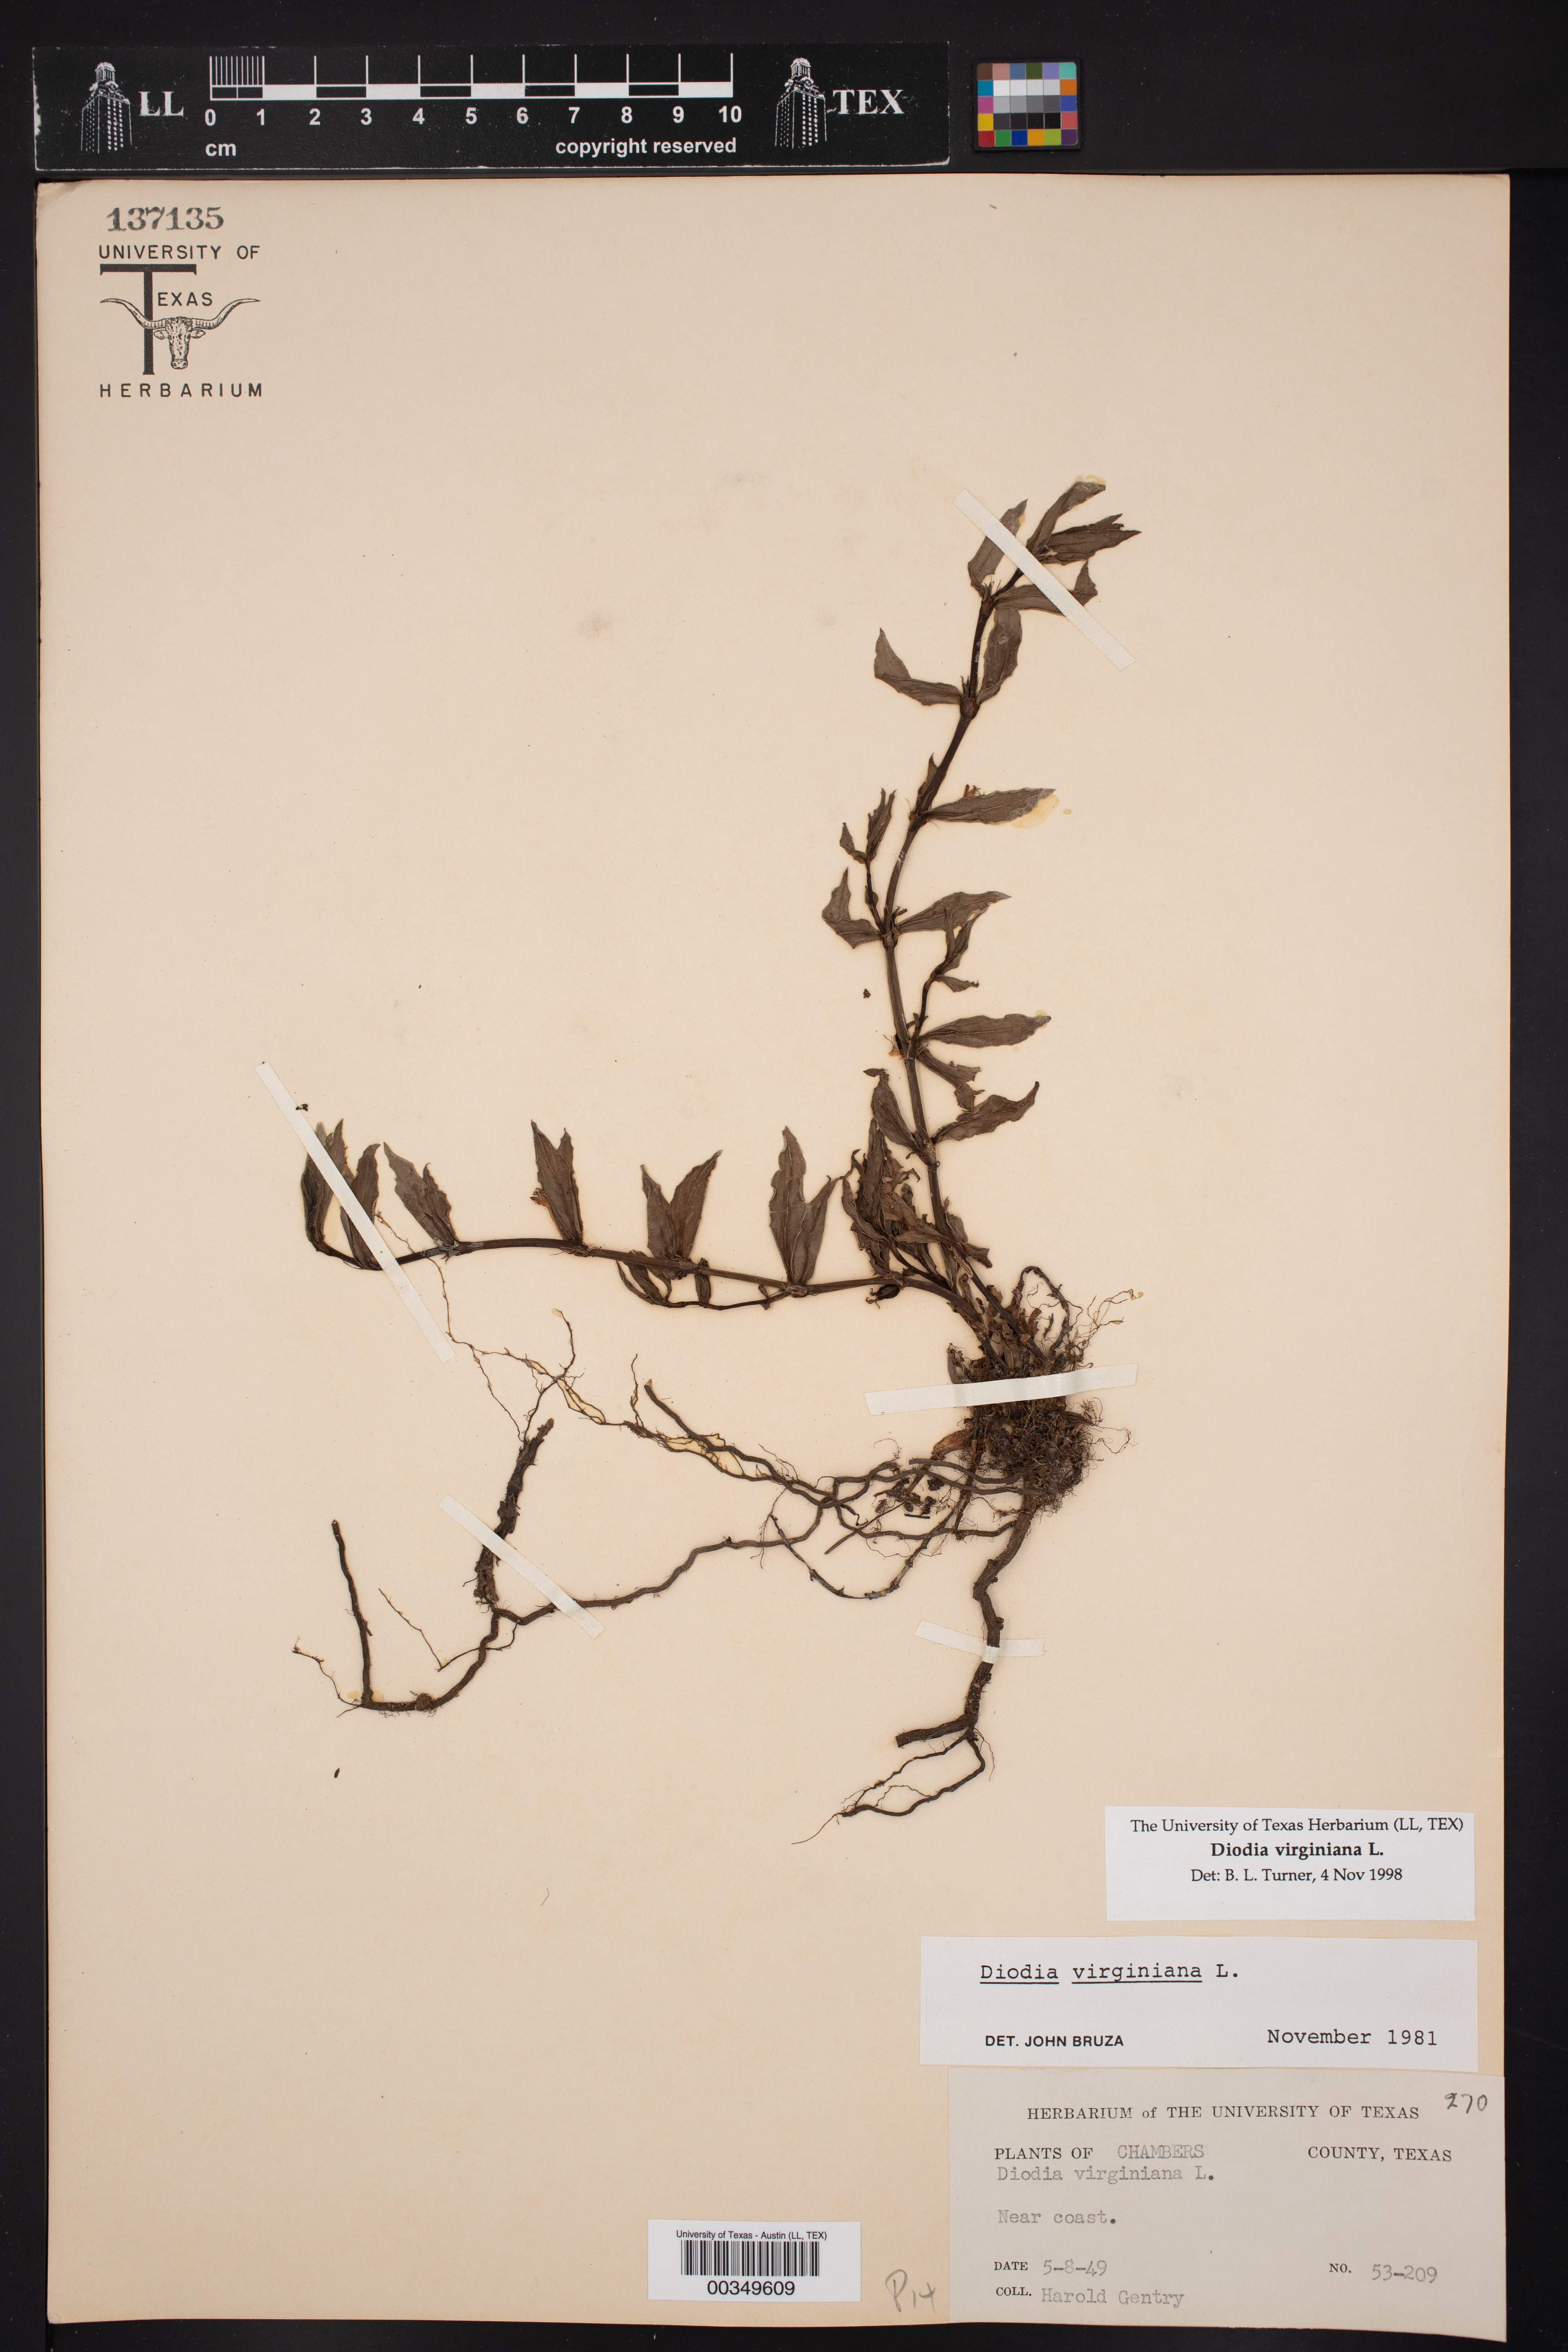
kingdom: Plantae
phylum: Tracheophyta
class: Magnoliopsida
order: Gentianales
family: Rubiaceae
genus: Diodia
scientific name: Diodia virginiana
